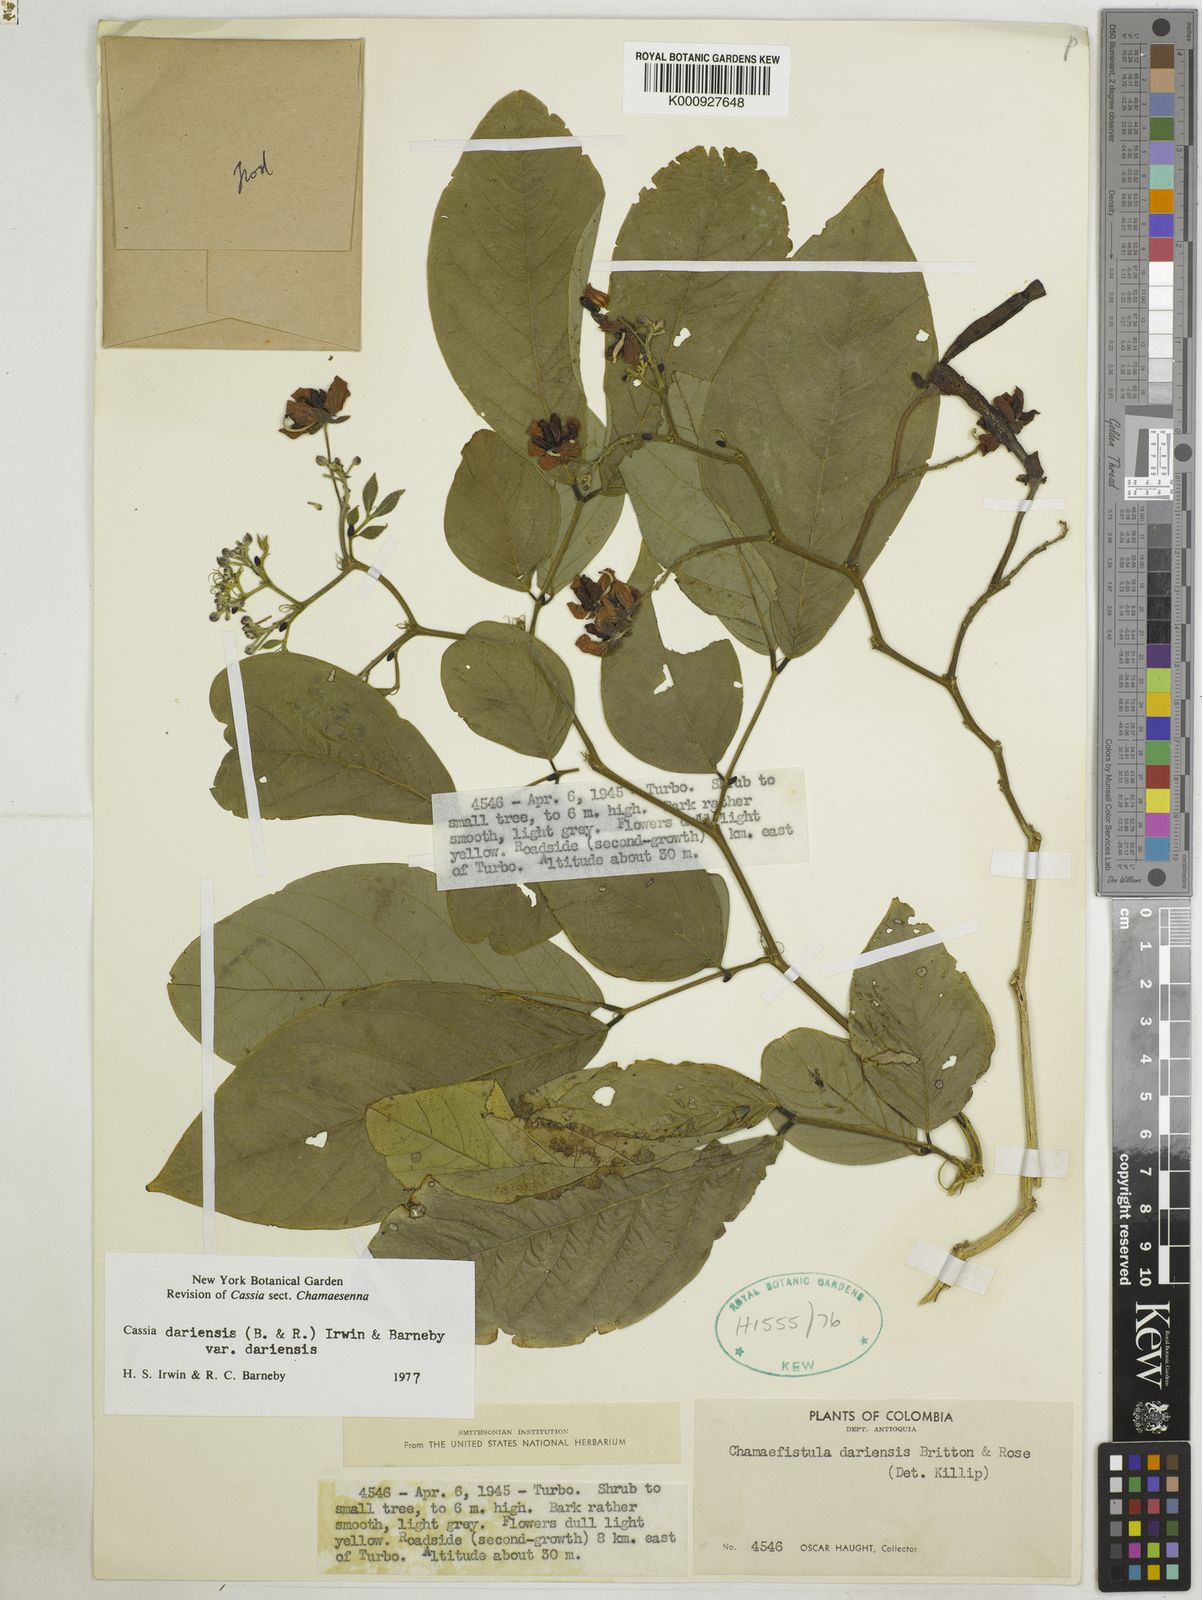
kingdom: Plantae
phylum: Tracheophyta
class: Magnoliopsida
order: Fabales
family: Fabaceae
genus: Senna
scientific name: Senna dariensis
